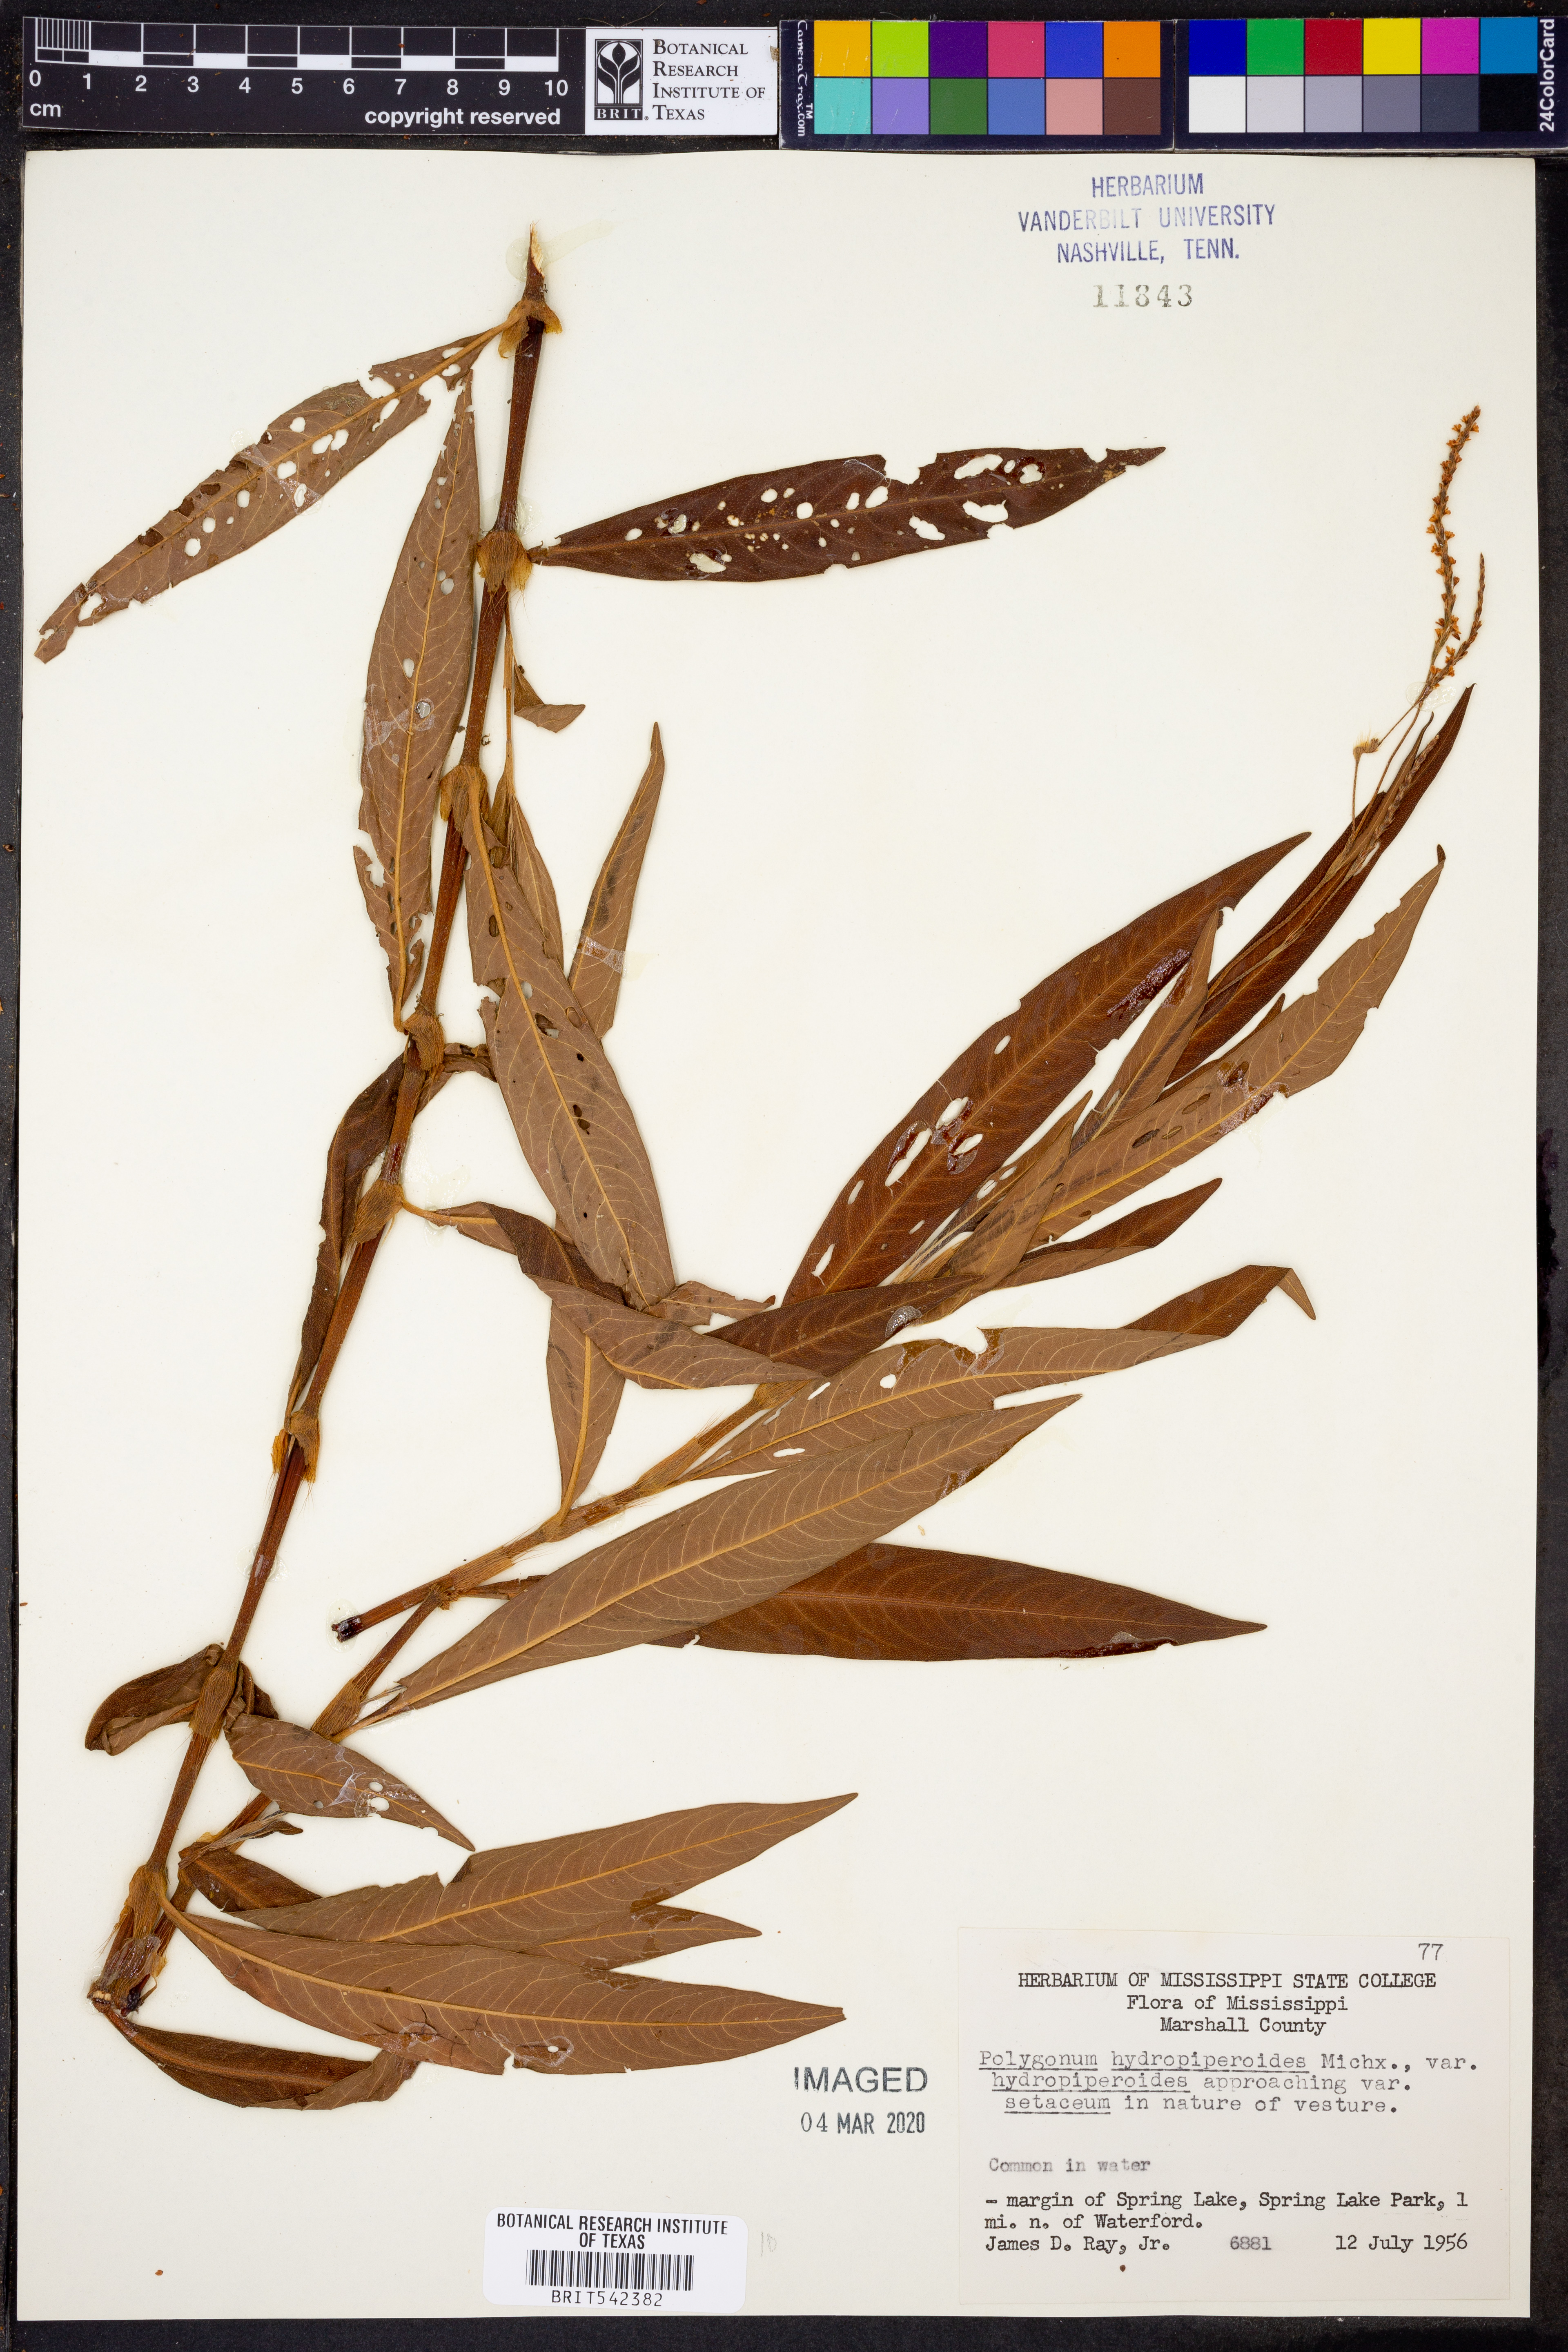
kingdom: Plantae
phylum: Tracheophyta
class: Magnoliopsida
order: Caryophyllales
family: Polygonaceae
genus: Persicaria
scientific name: Persicaria hydropiperoides
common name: Swamp smartweed
